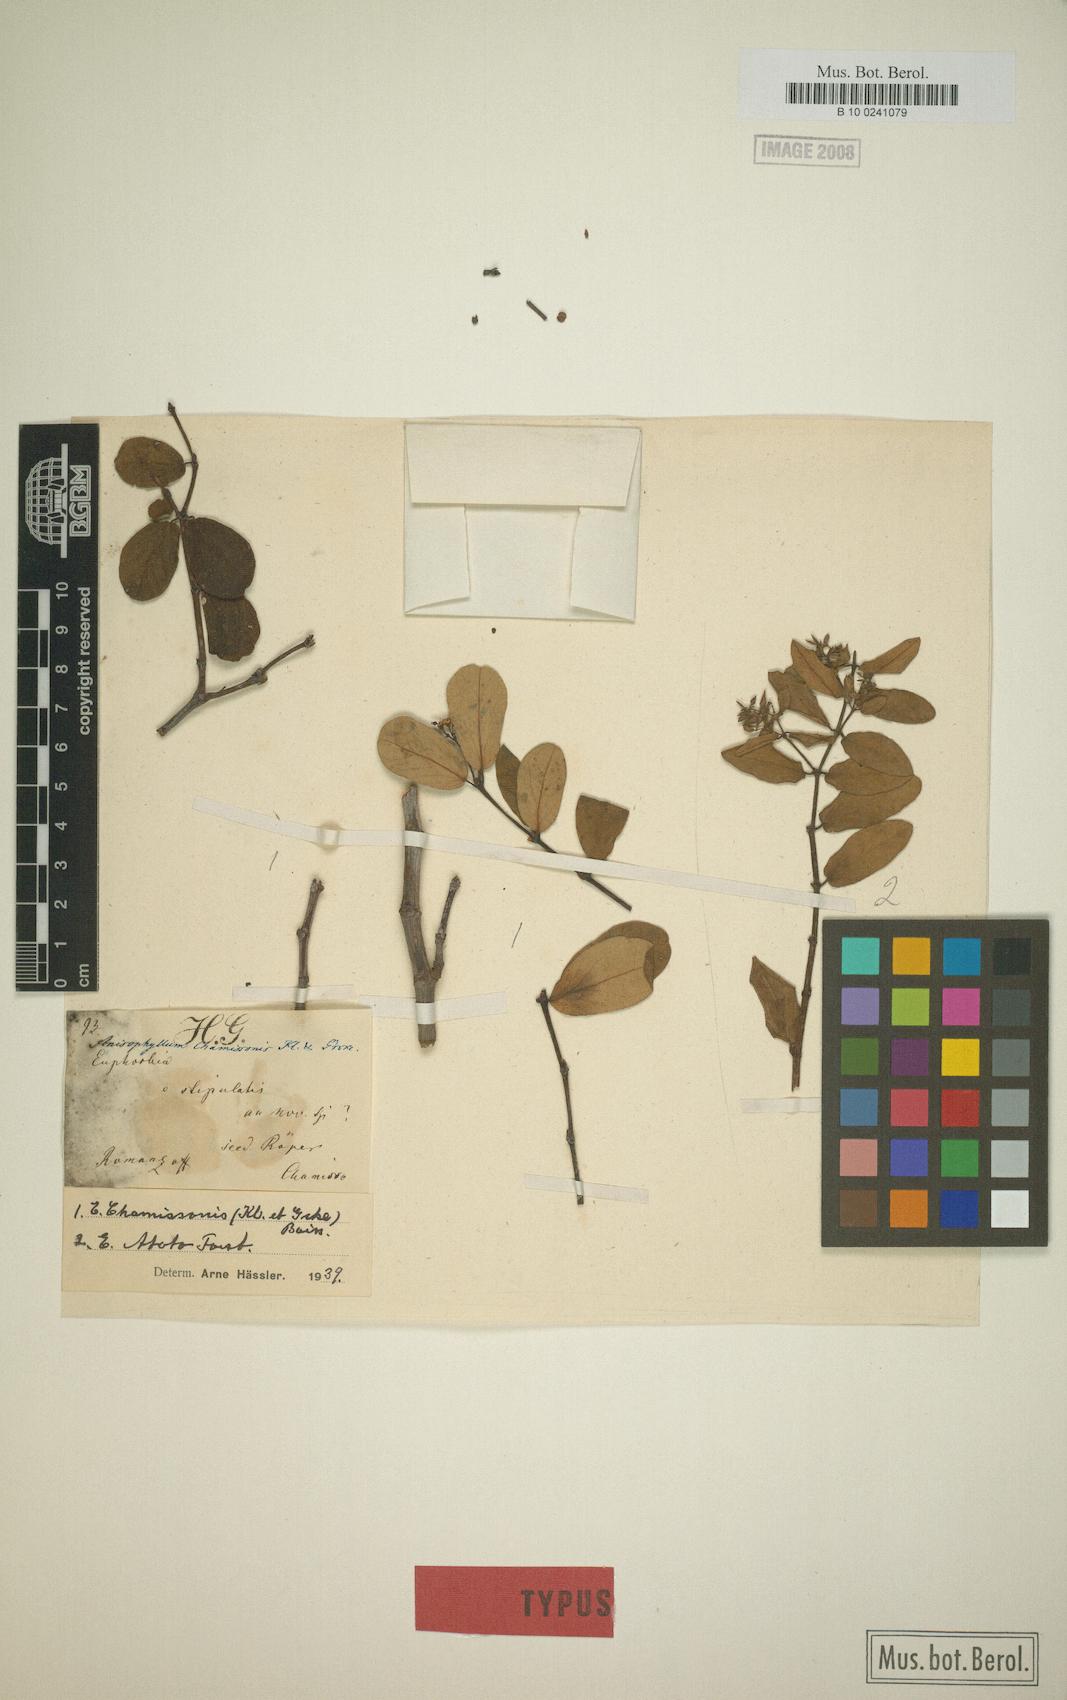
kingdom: Plantae
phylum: Tracheophyta
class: Magnoliopsida
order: Malpighiales
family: Euphorbiaceae
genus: Euphorbia
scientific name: Euphorbia chamissonis
